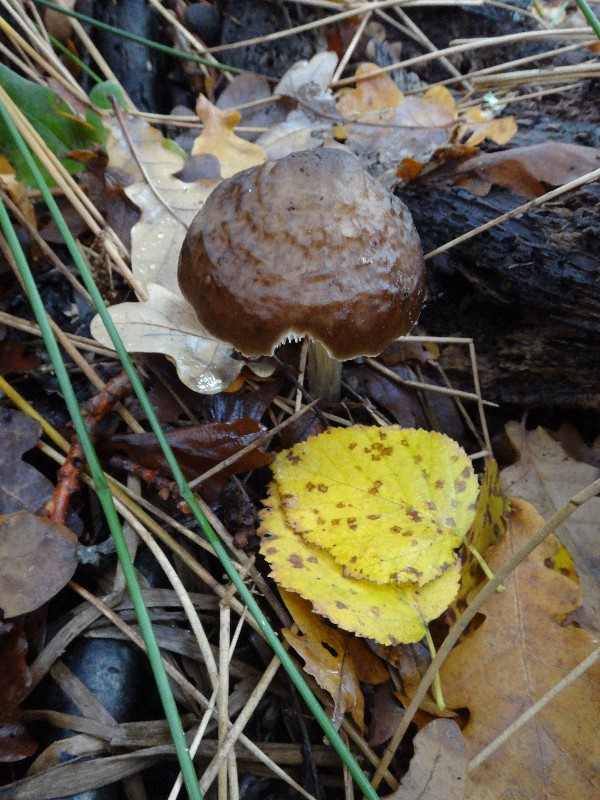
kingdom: Fungi
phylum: Basidiomycota
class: Agaricomycetes
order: Agaricales
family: Pluteaceae
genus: Pluteus
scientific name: Pluteus cervinus
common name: sodfarvet skærmhat
